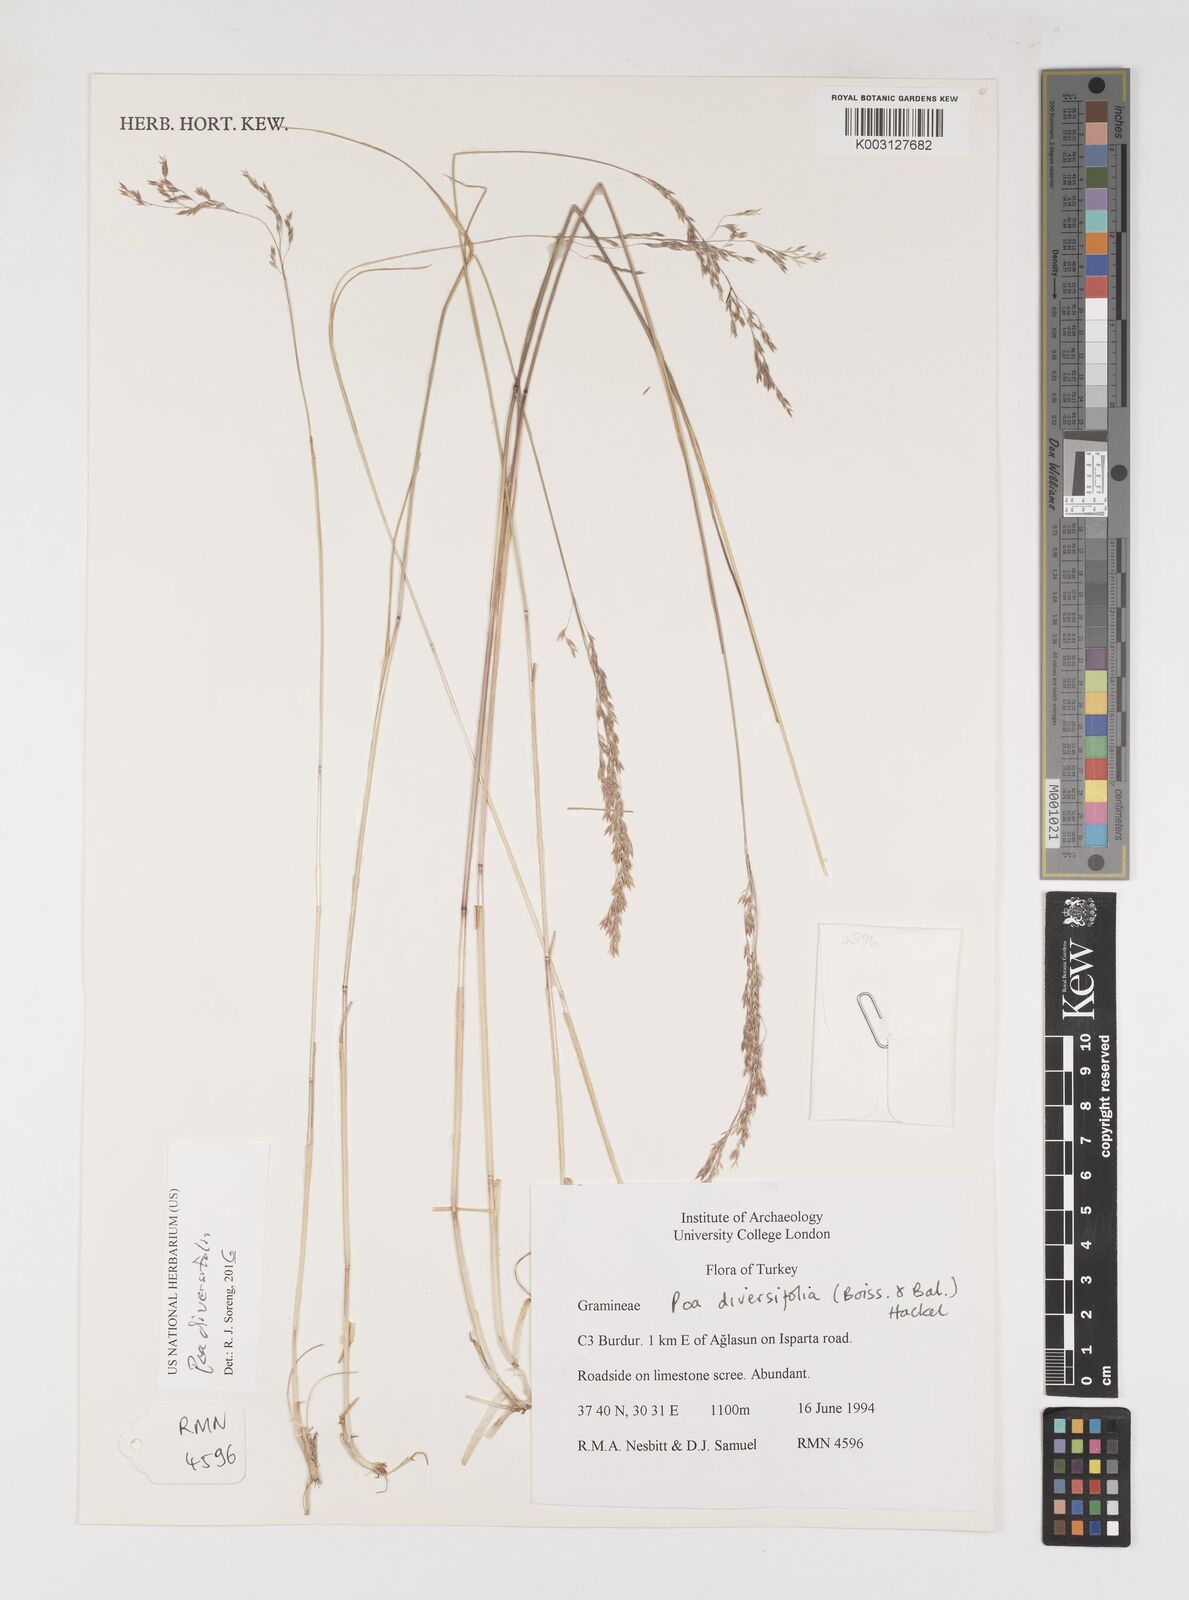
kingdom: Plantae
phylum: Tracheophyta
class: Liliopsida
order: Poales
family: Poaceae
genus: Poa
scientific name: Poa diversifolia
